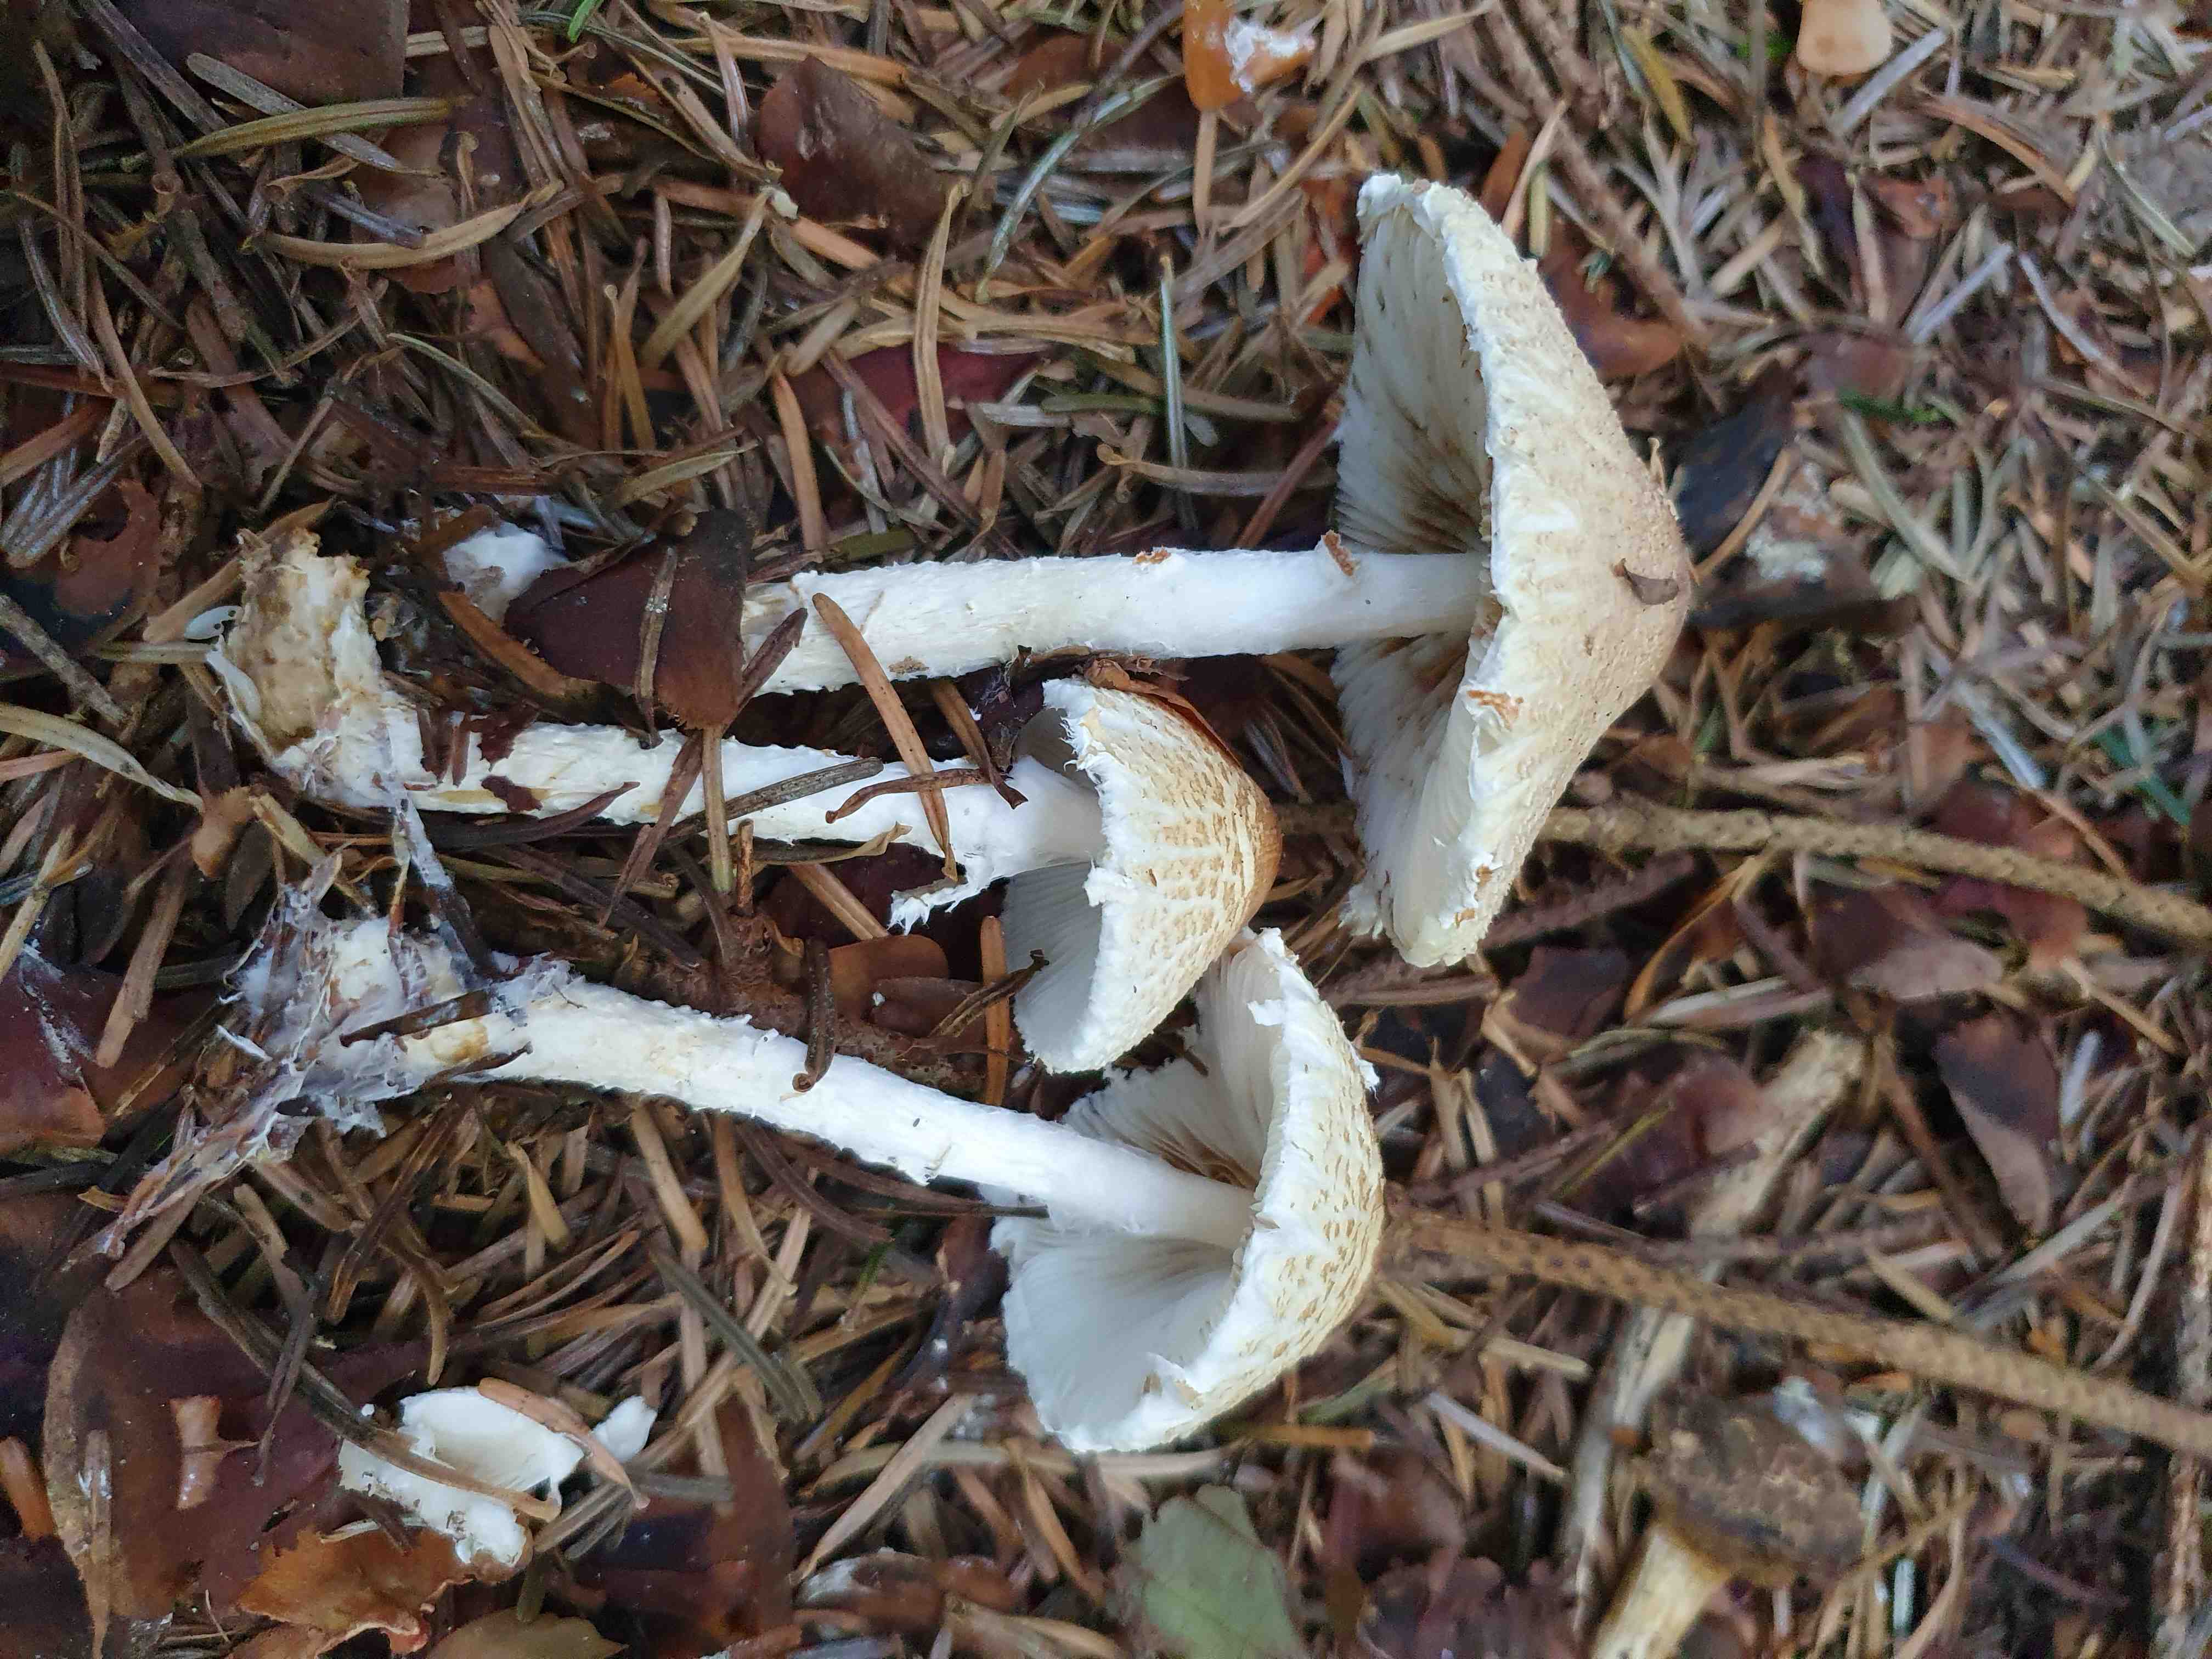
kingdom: Fungi
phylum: Basidiomycota
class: Agaricomycetes
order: Agaricales
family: Agaricaceae
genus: Lepiota
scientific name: Lepiota clypeolaria
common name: flosset parasolhat
